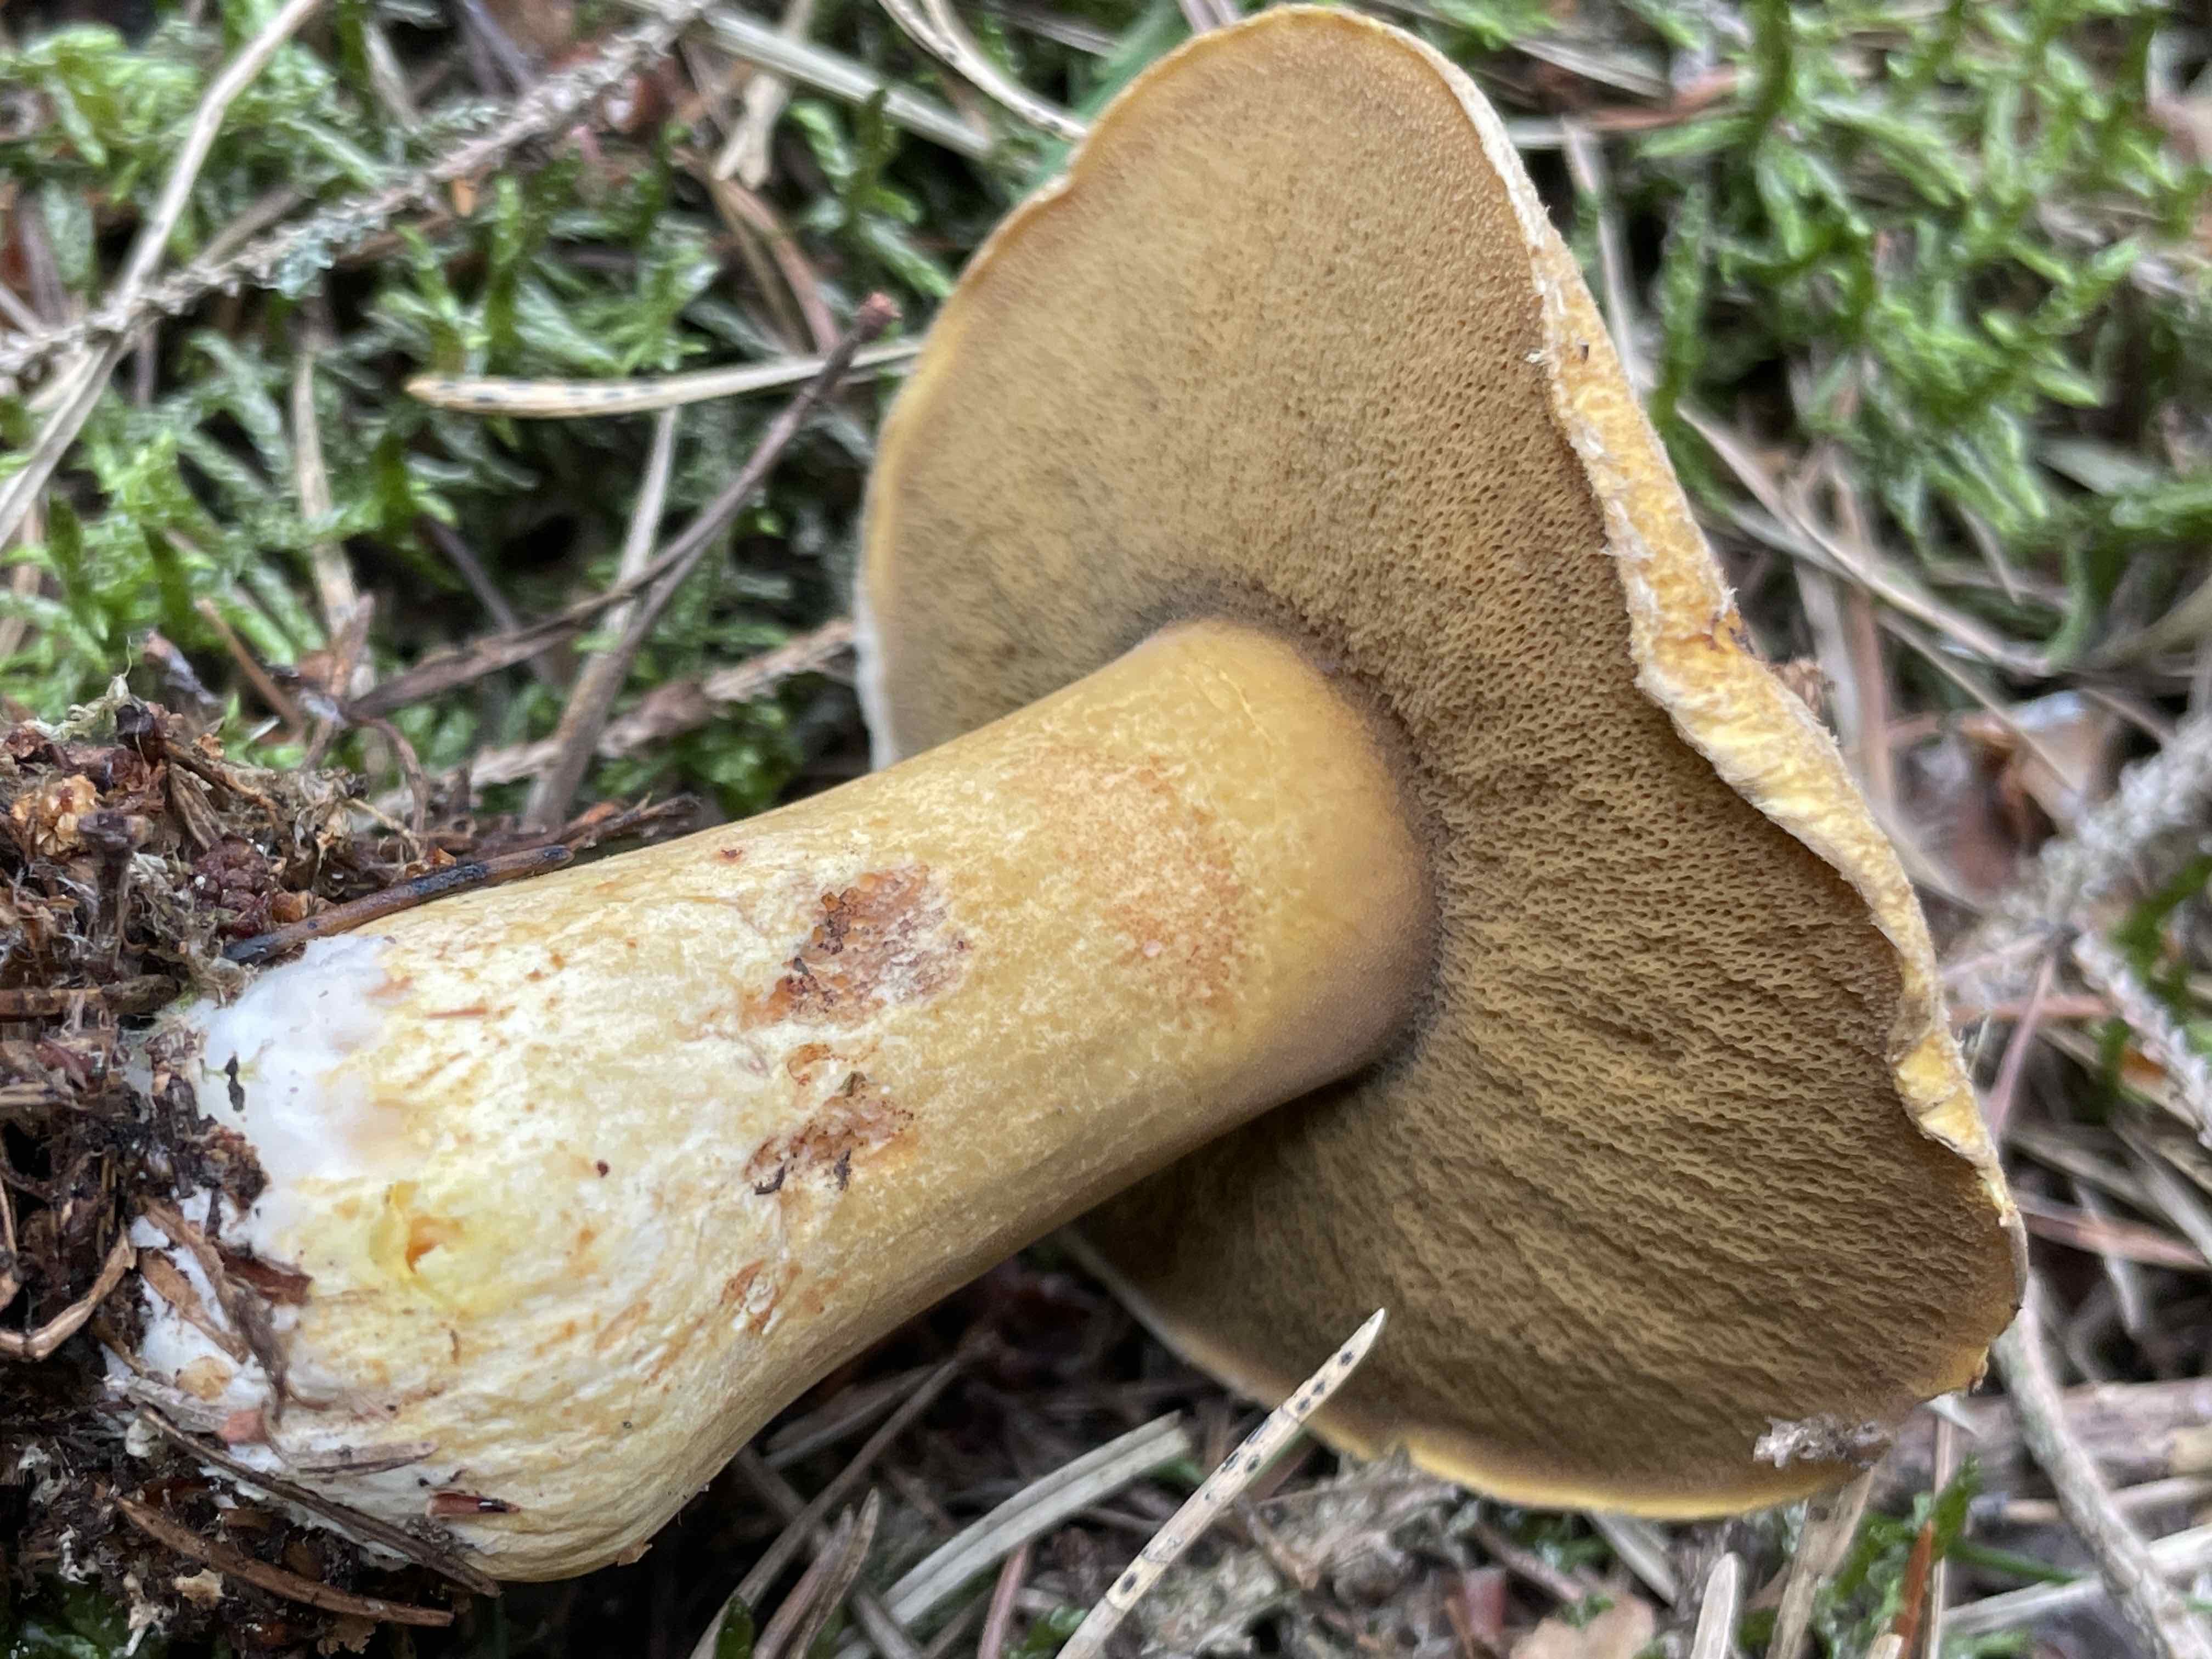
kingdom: Fungi
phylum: Basidiomycota
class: Agaricomycetes
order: Boletales
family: Suillaceae
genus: Suillus
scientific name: Suillus variegatus
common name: broget slimrørhat
